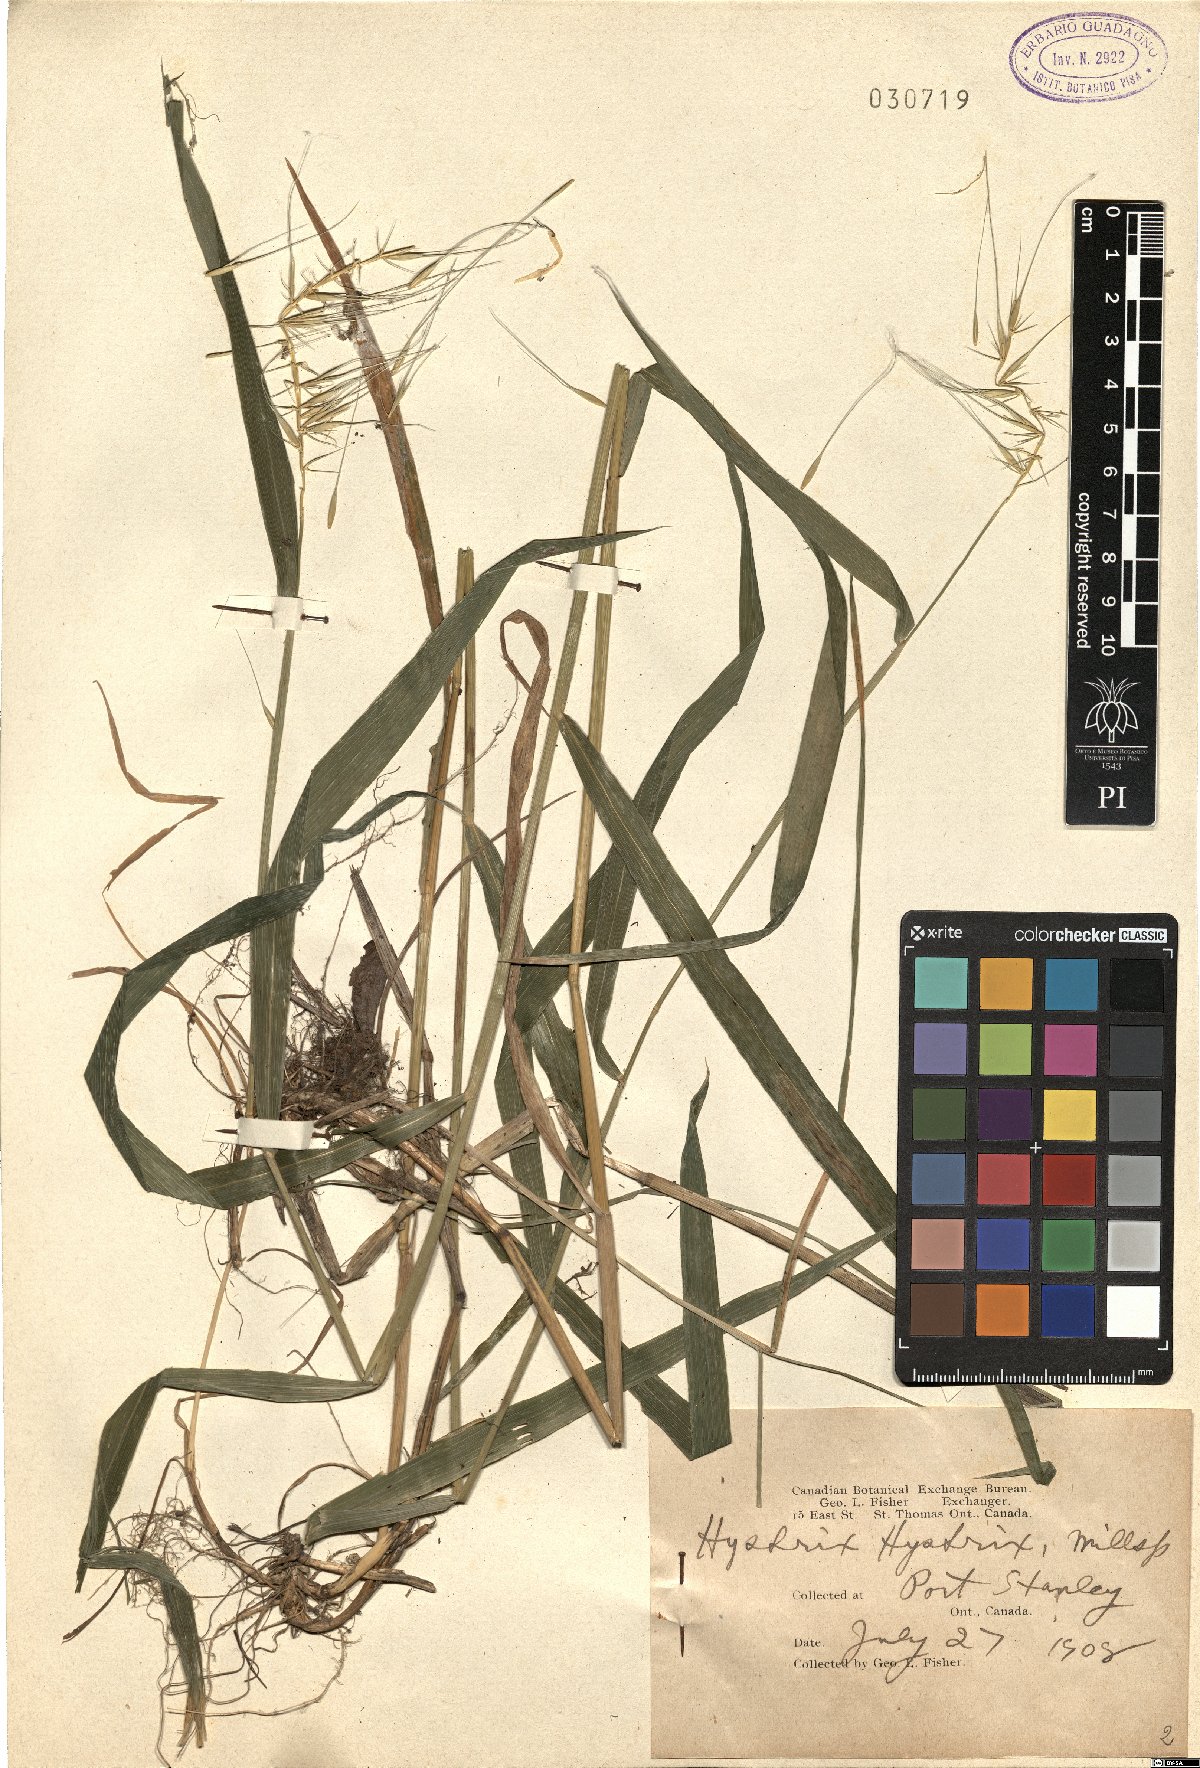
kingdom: Plantae
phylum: Tracheophyta
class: Liliopsida
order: Poales
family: Poaceae
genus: Elymus
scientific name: Elymus hystrix
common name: Bottlebrush grass
